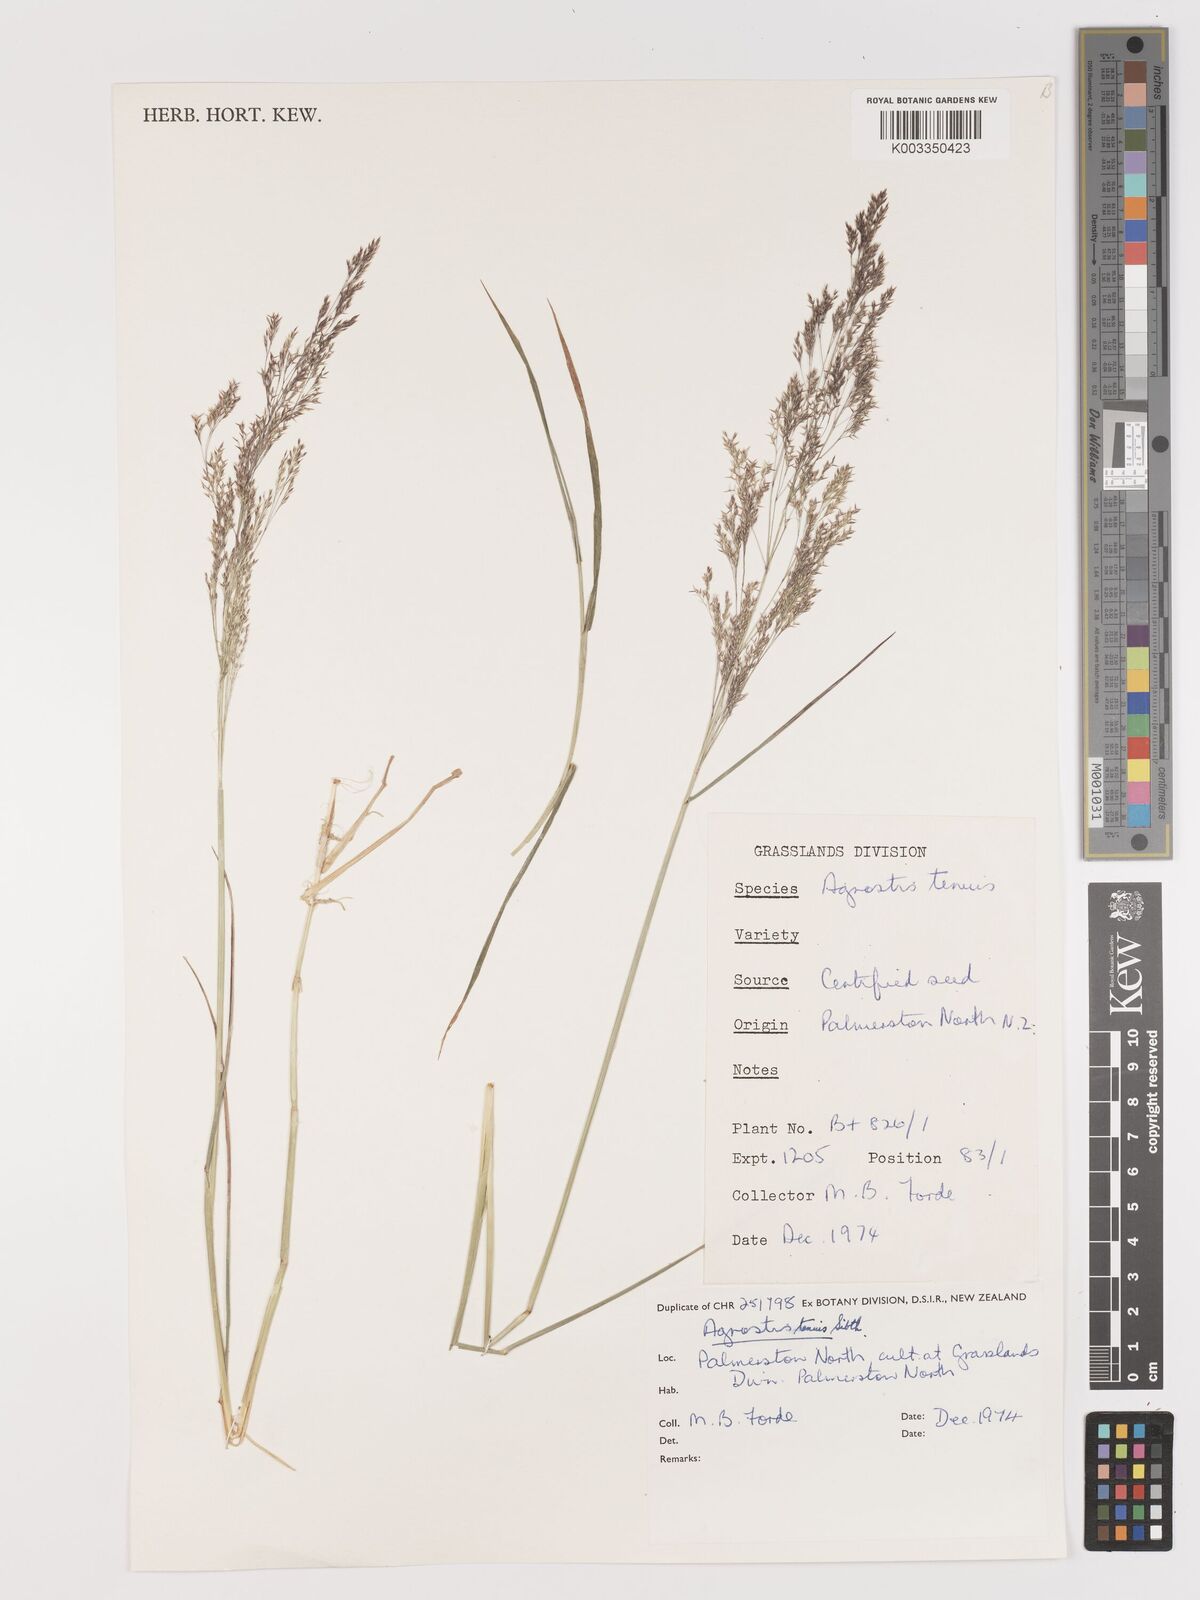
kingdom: Plantae
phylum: Tracheophyta
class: Liliopsida
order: Poales
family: Poaceae
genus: Agrostis
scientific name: Agrostis capillaris
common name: Colonial bentgrass
